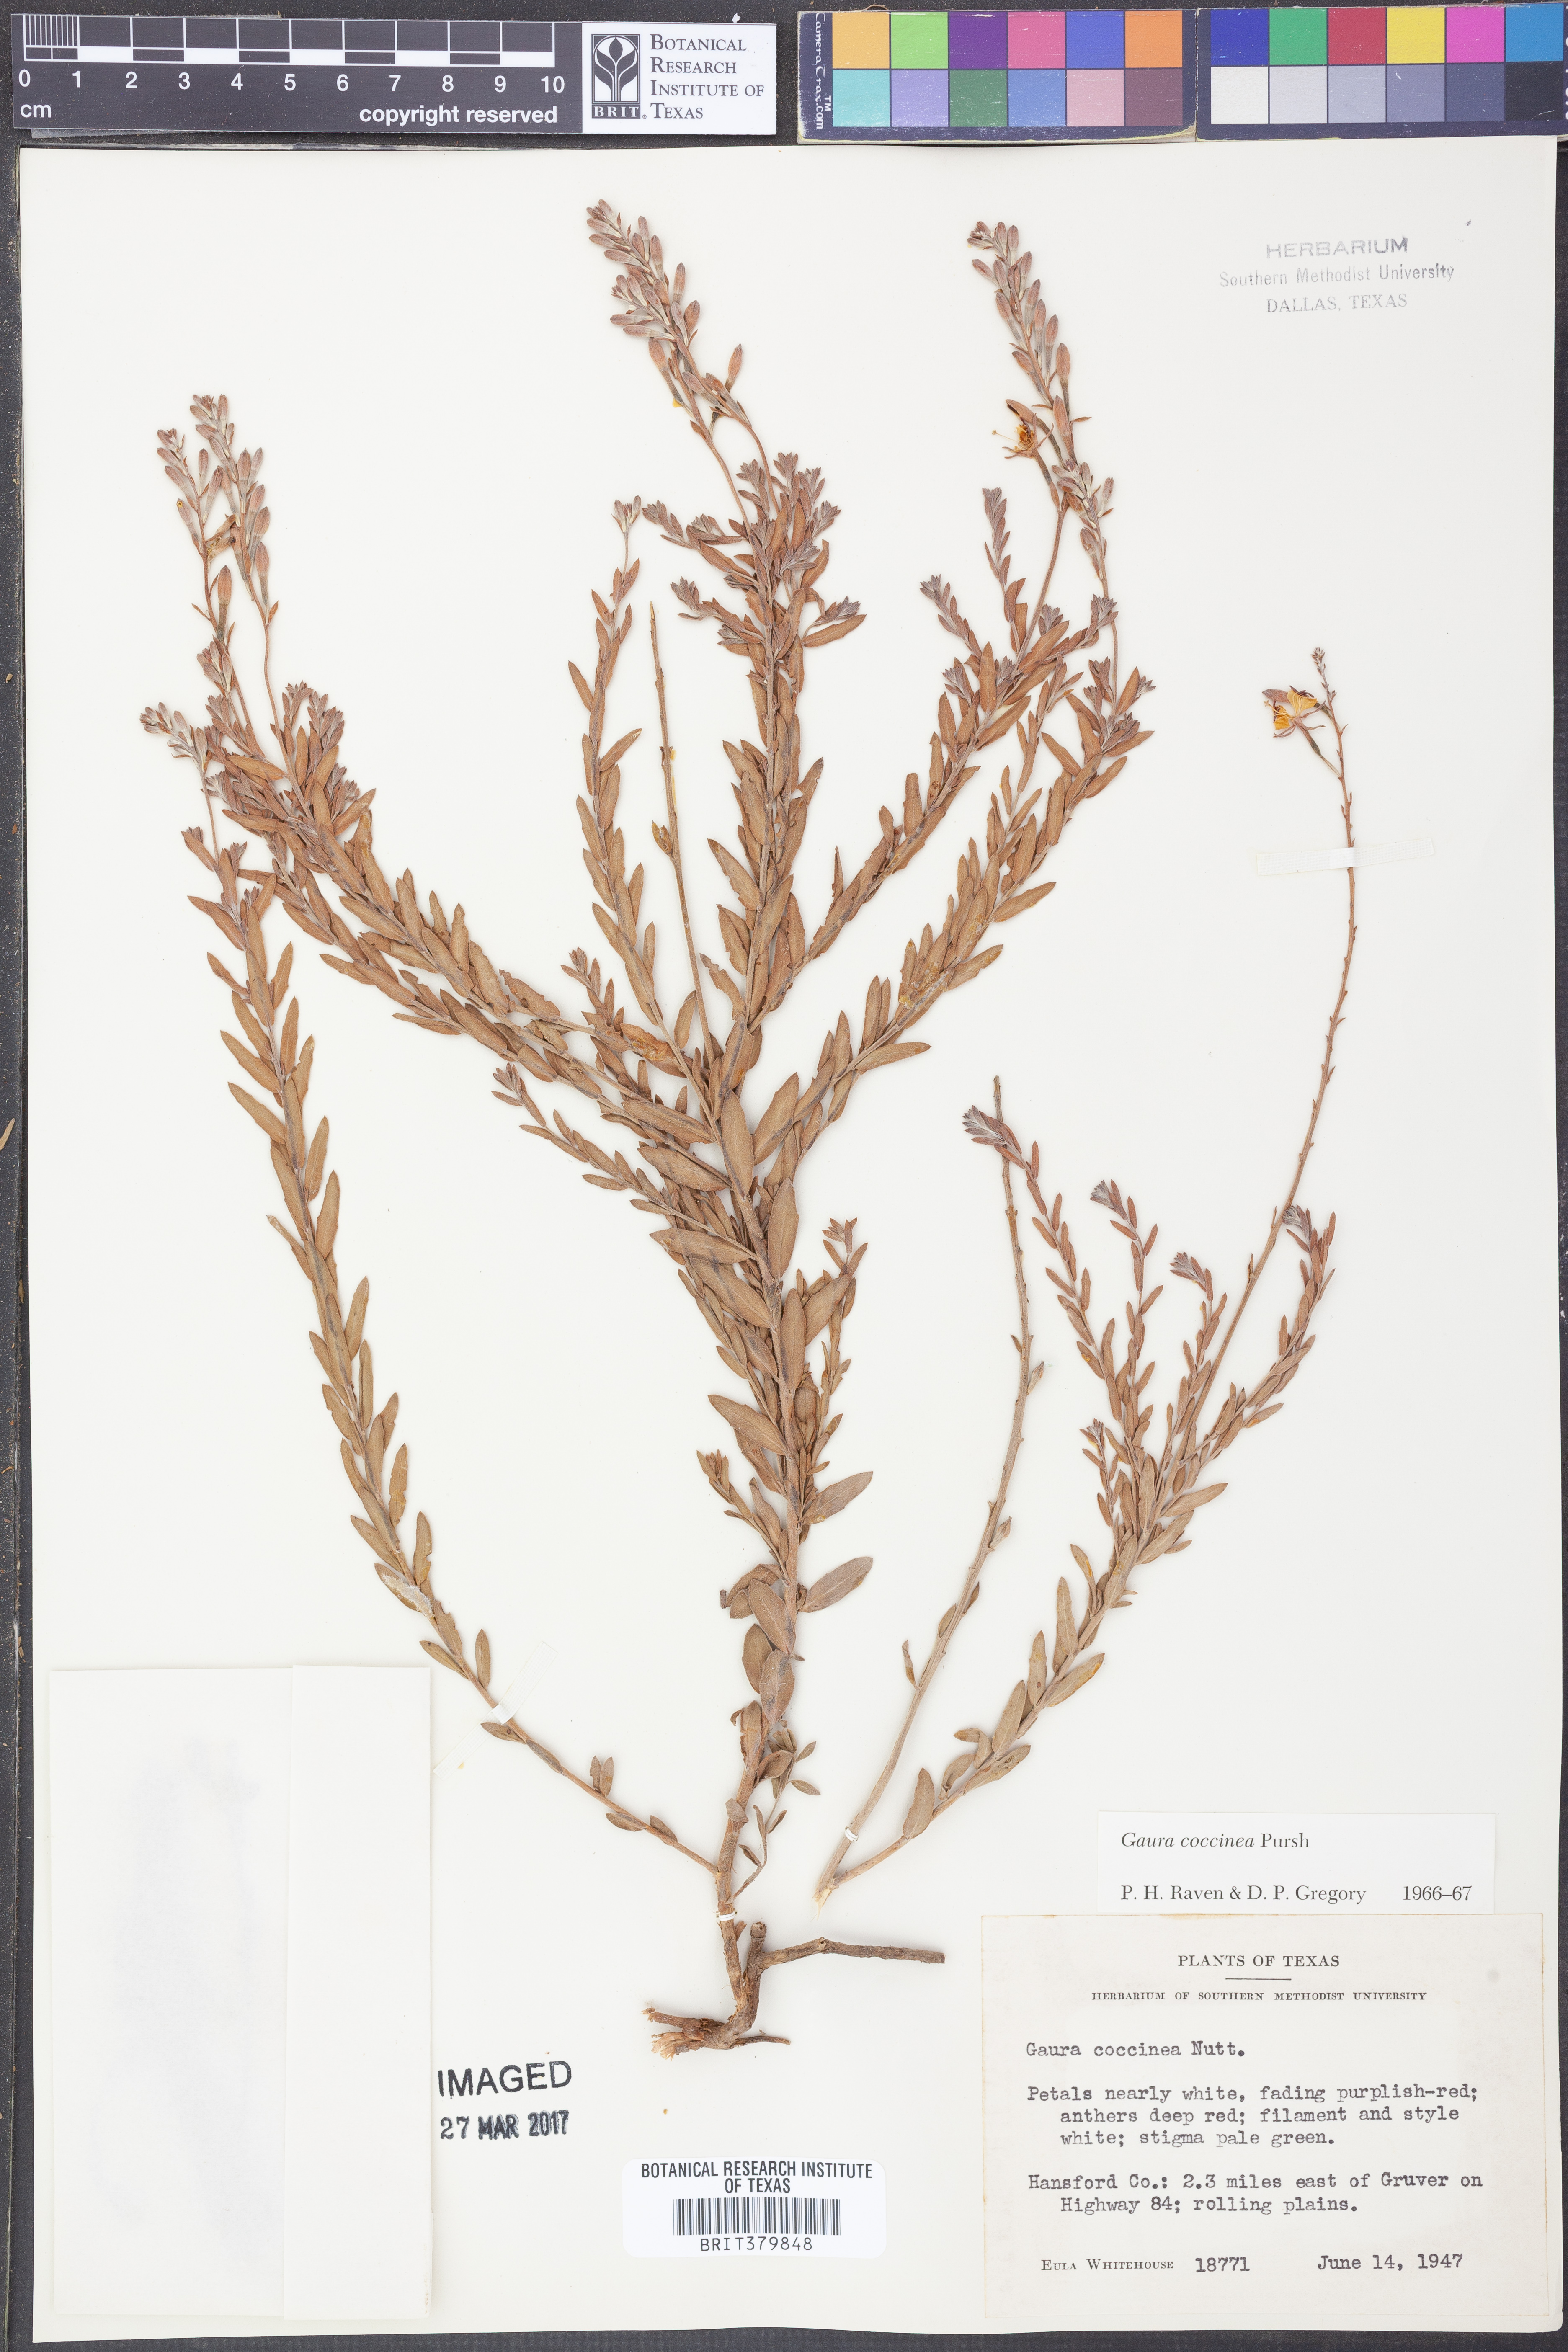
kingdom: Plantae
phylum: Tracheophyta
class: Magnoliopsida
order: Myrtales
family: Onagraceae
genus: Oenothera
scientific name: Oenothera suffrutescens
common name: Scarlet beeblossom
